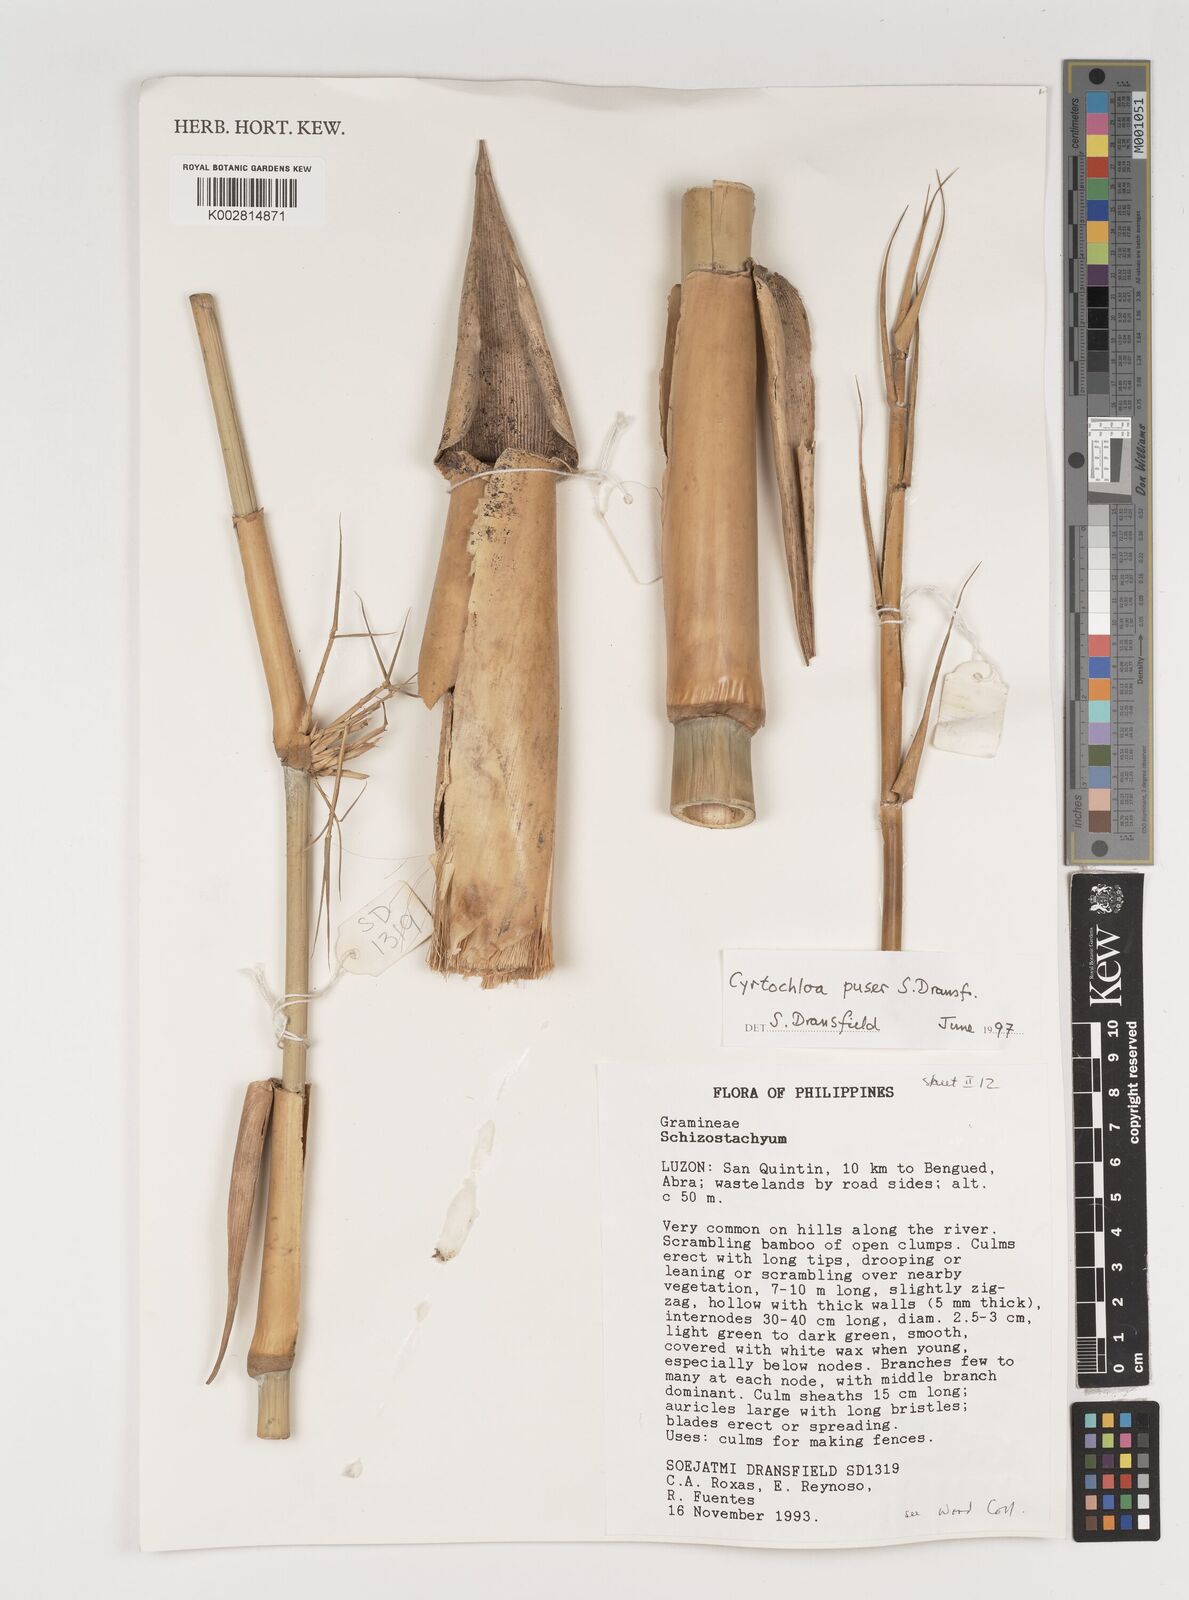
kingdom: Plantae
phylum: Tracheophyta
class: Liliopsida
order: Poales
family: Poaceae
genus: Cyrtochloa
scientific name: Cyrtochloa puser
